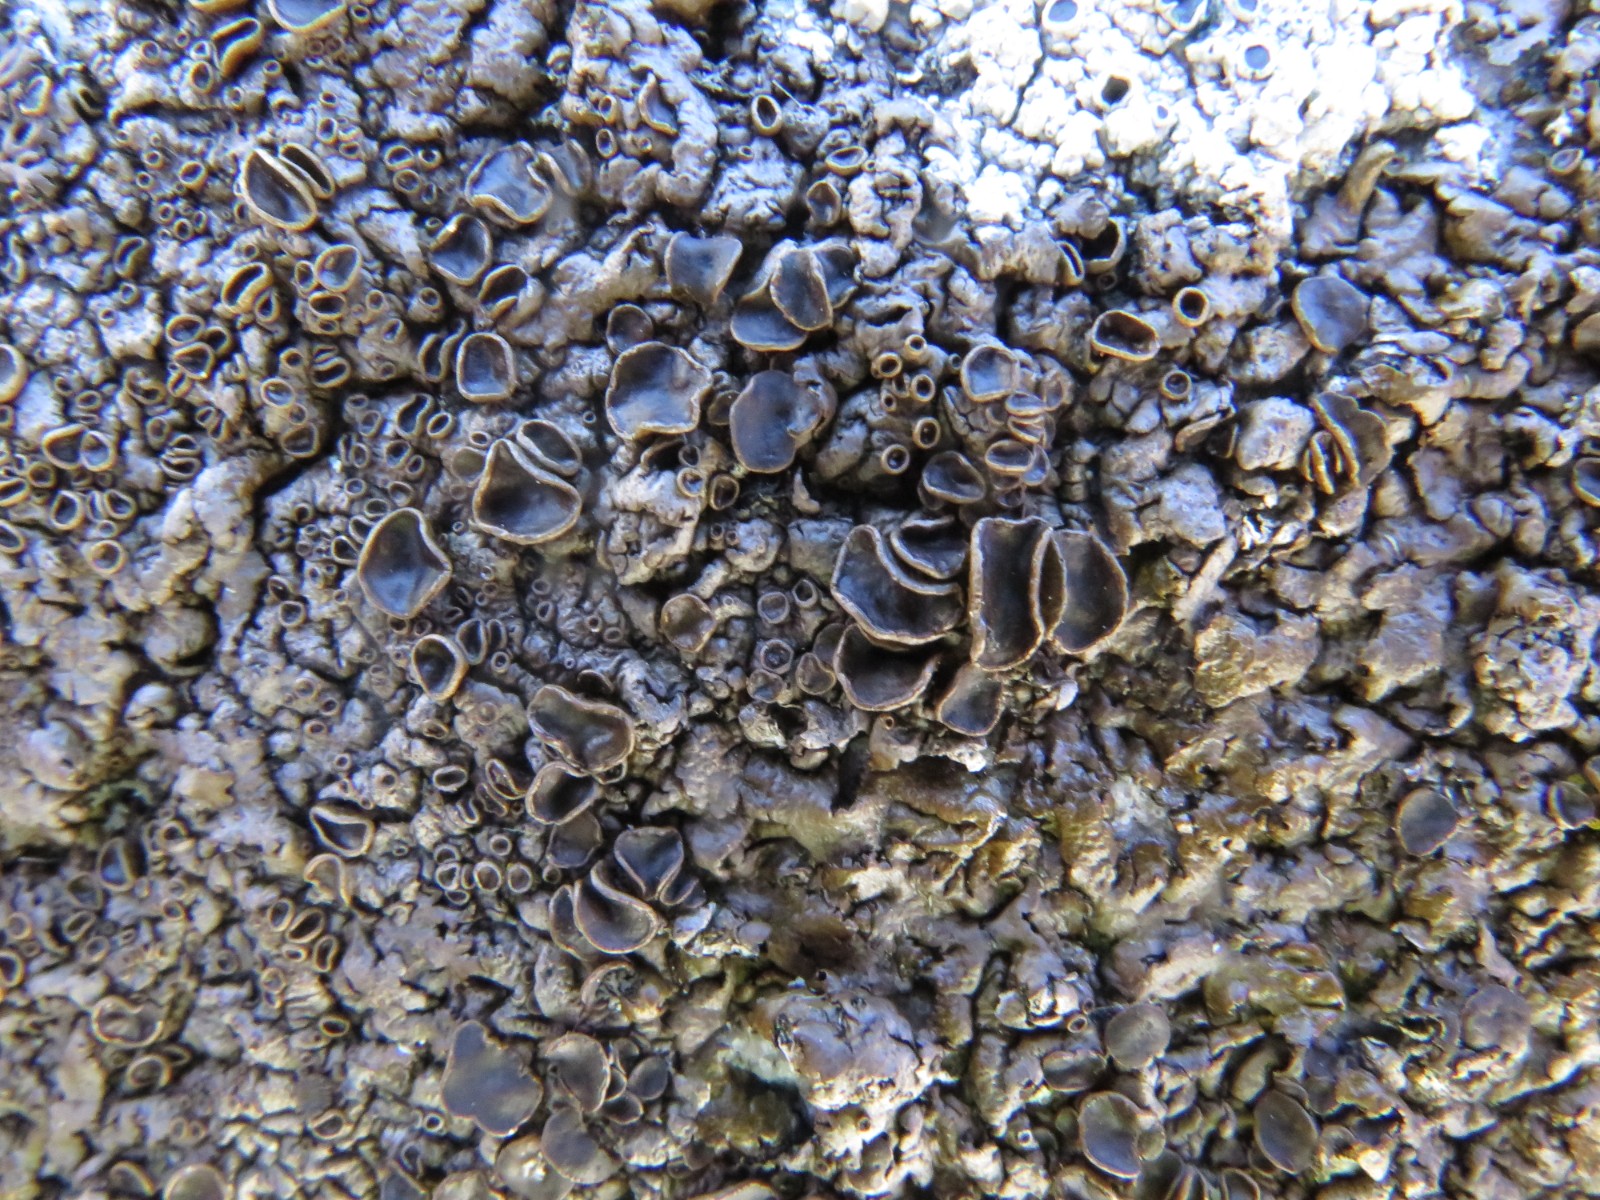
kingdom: Fungi
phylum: Ascomycota
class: Lecanoromycetes
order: Lecanorales
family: Parmeliaceae
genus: Xanthoparmelia
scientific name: Xanthoparmelia pulla
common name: mørkebrun skållav
